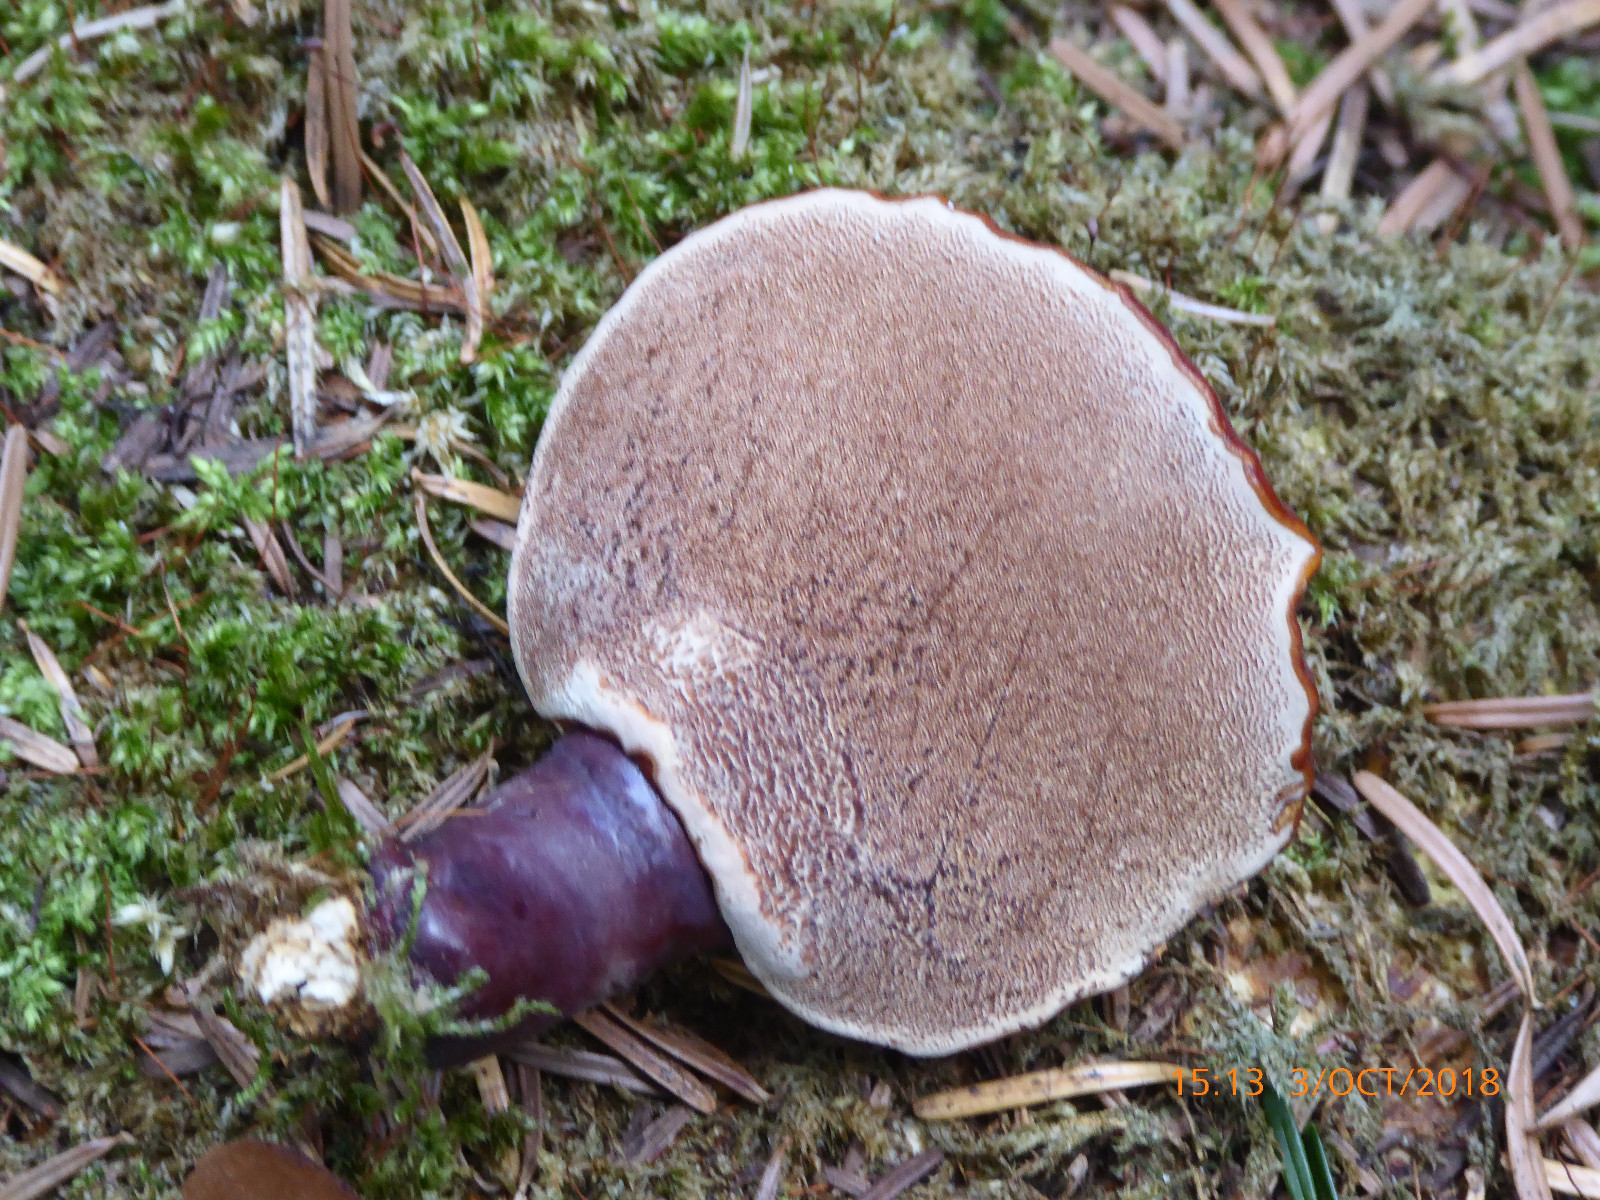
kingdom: Fungi
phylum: Basidiomycota
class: Agaricomycetes
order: Polyporales
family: Polyporaceae
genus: Ganoderma
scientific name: Ganoderma lucidum
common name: skinnende lakporesvamp
